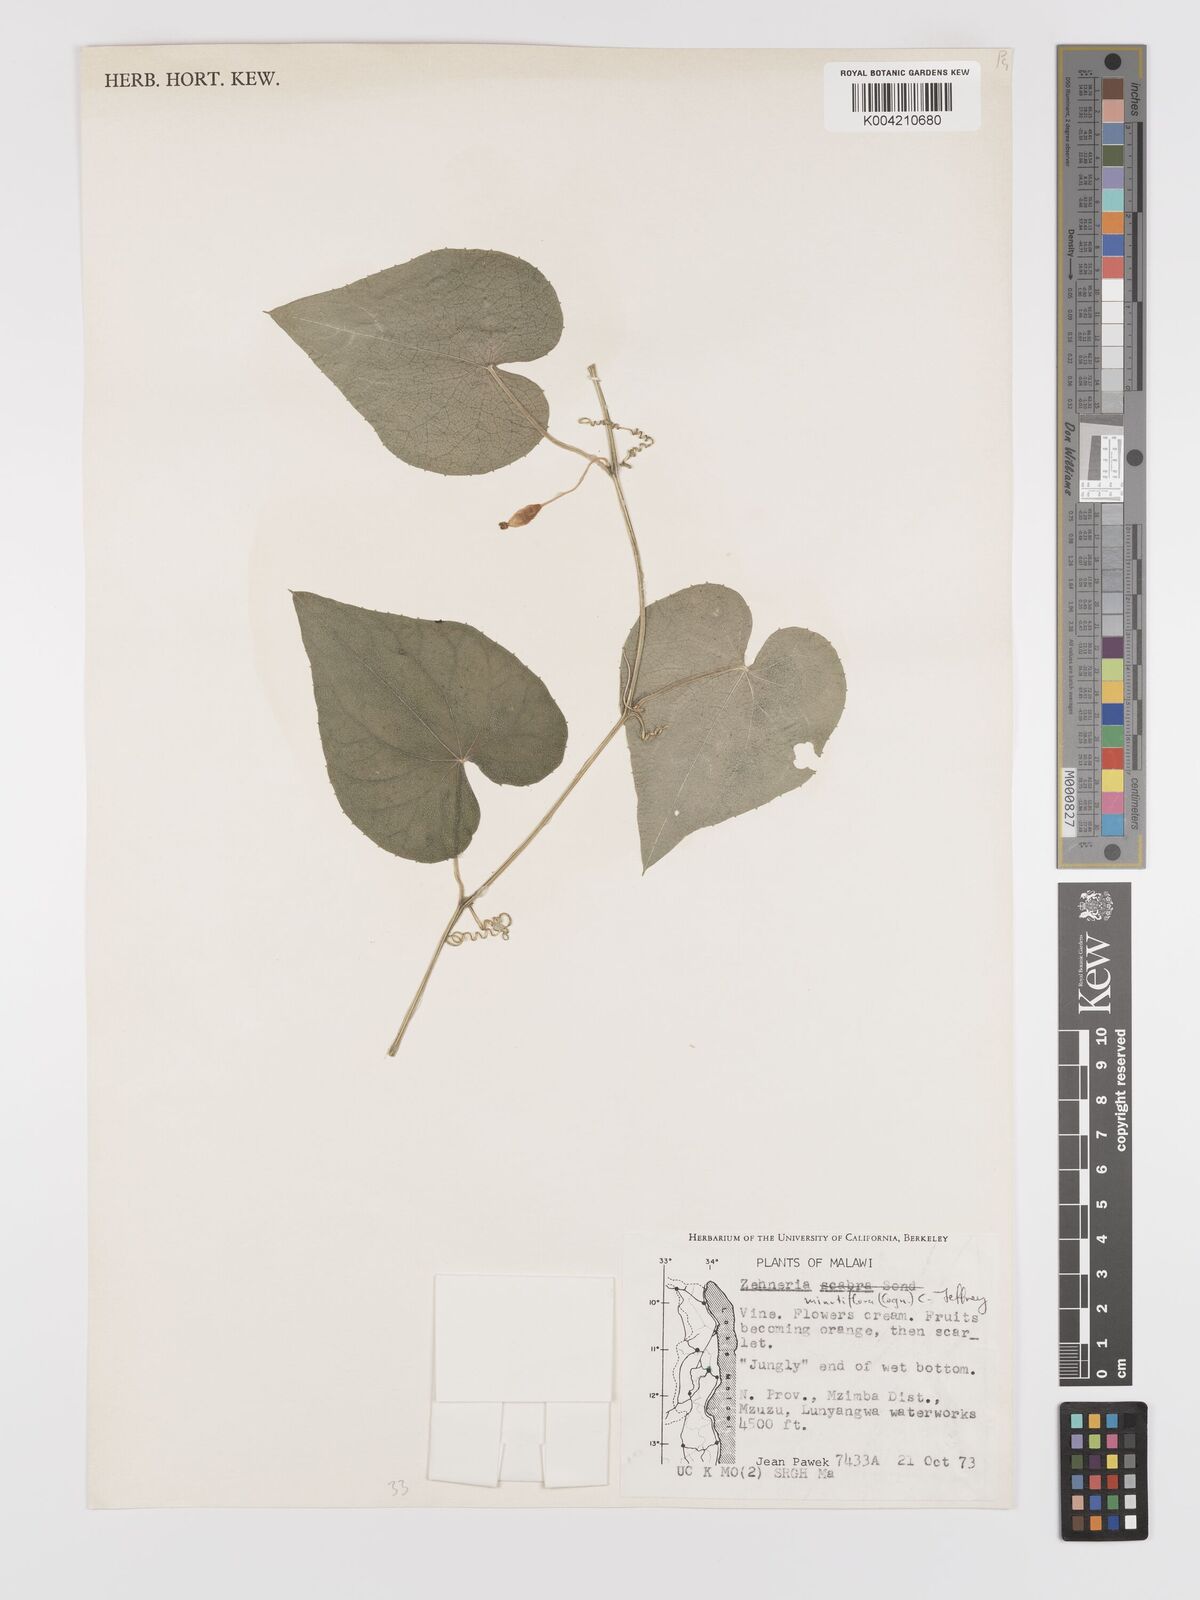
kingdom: Plantae
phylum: Tracheophyta
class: Magnoliopsida
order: Cucurbitales
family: Cucurbitaceae
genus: Zehneria
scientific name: Zehneria minutiflora
